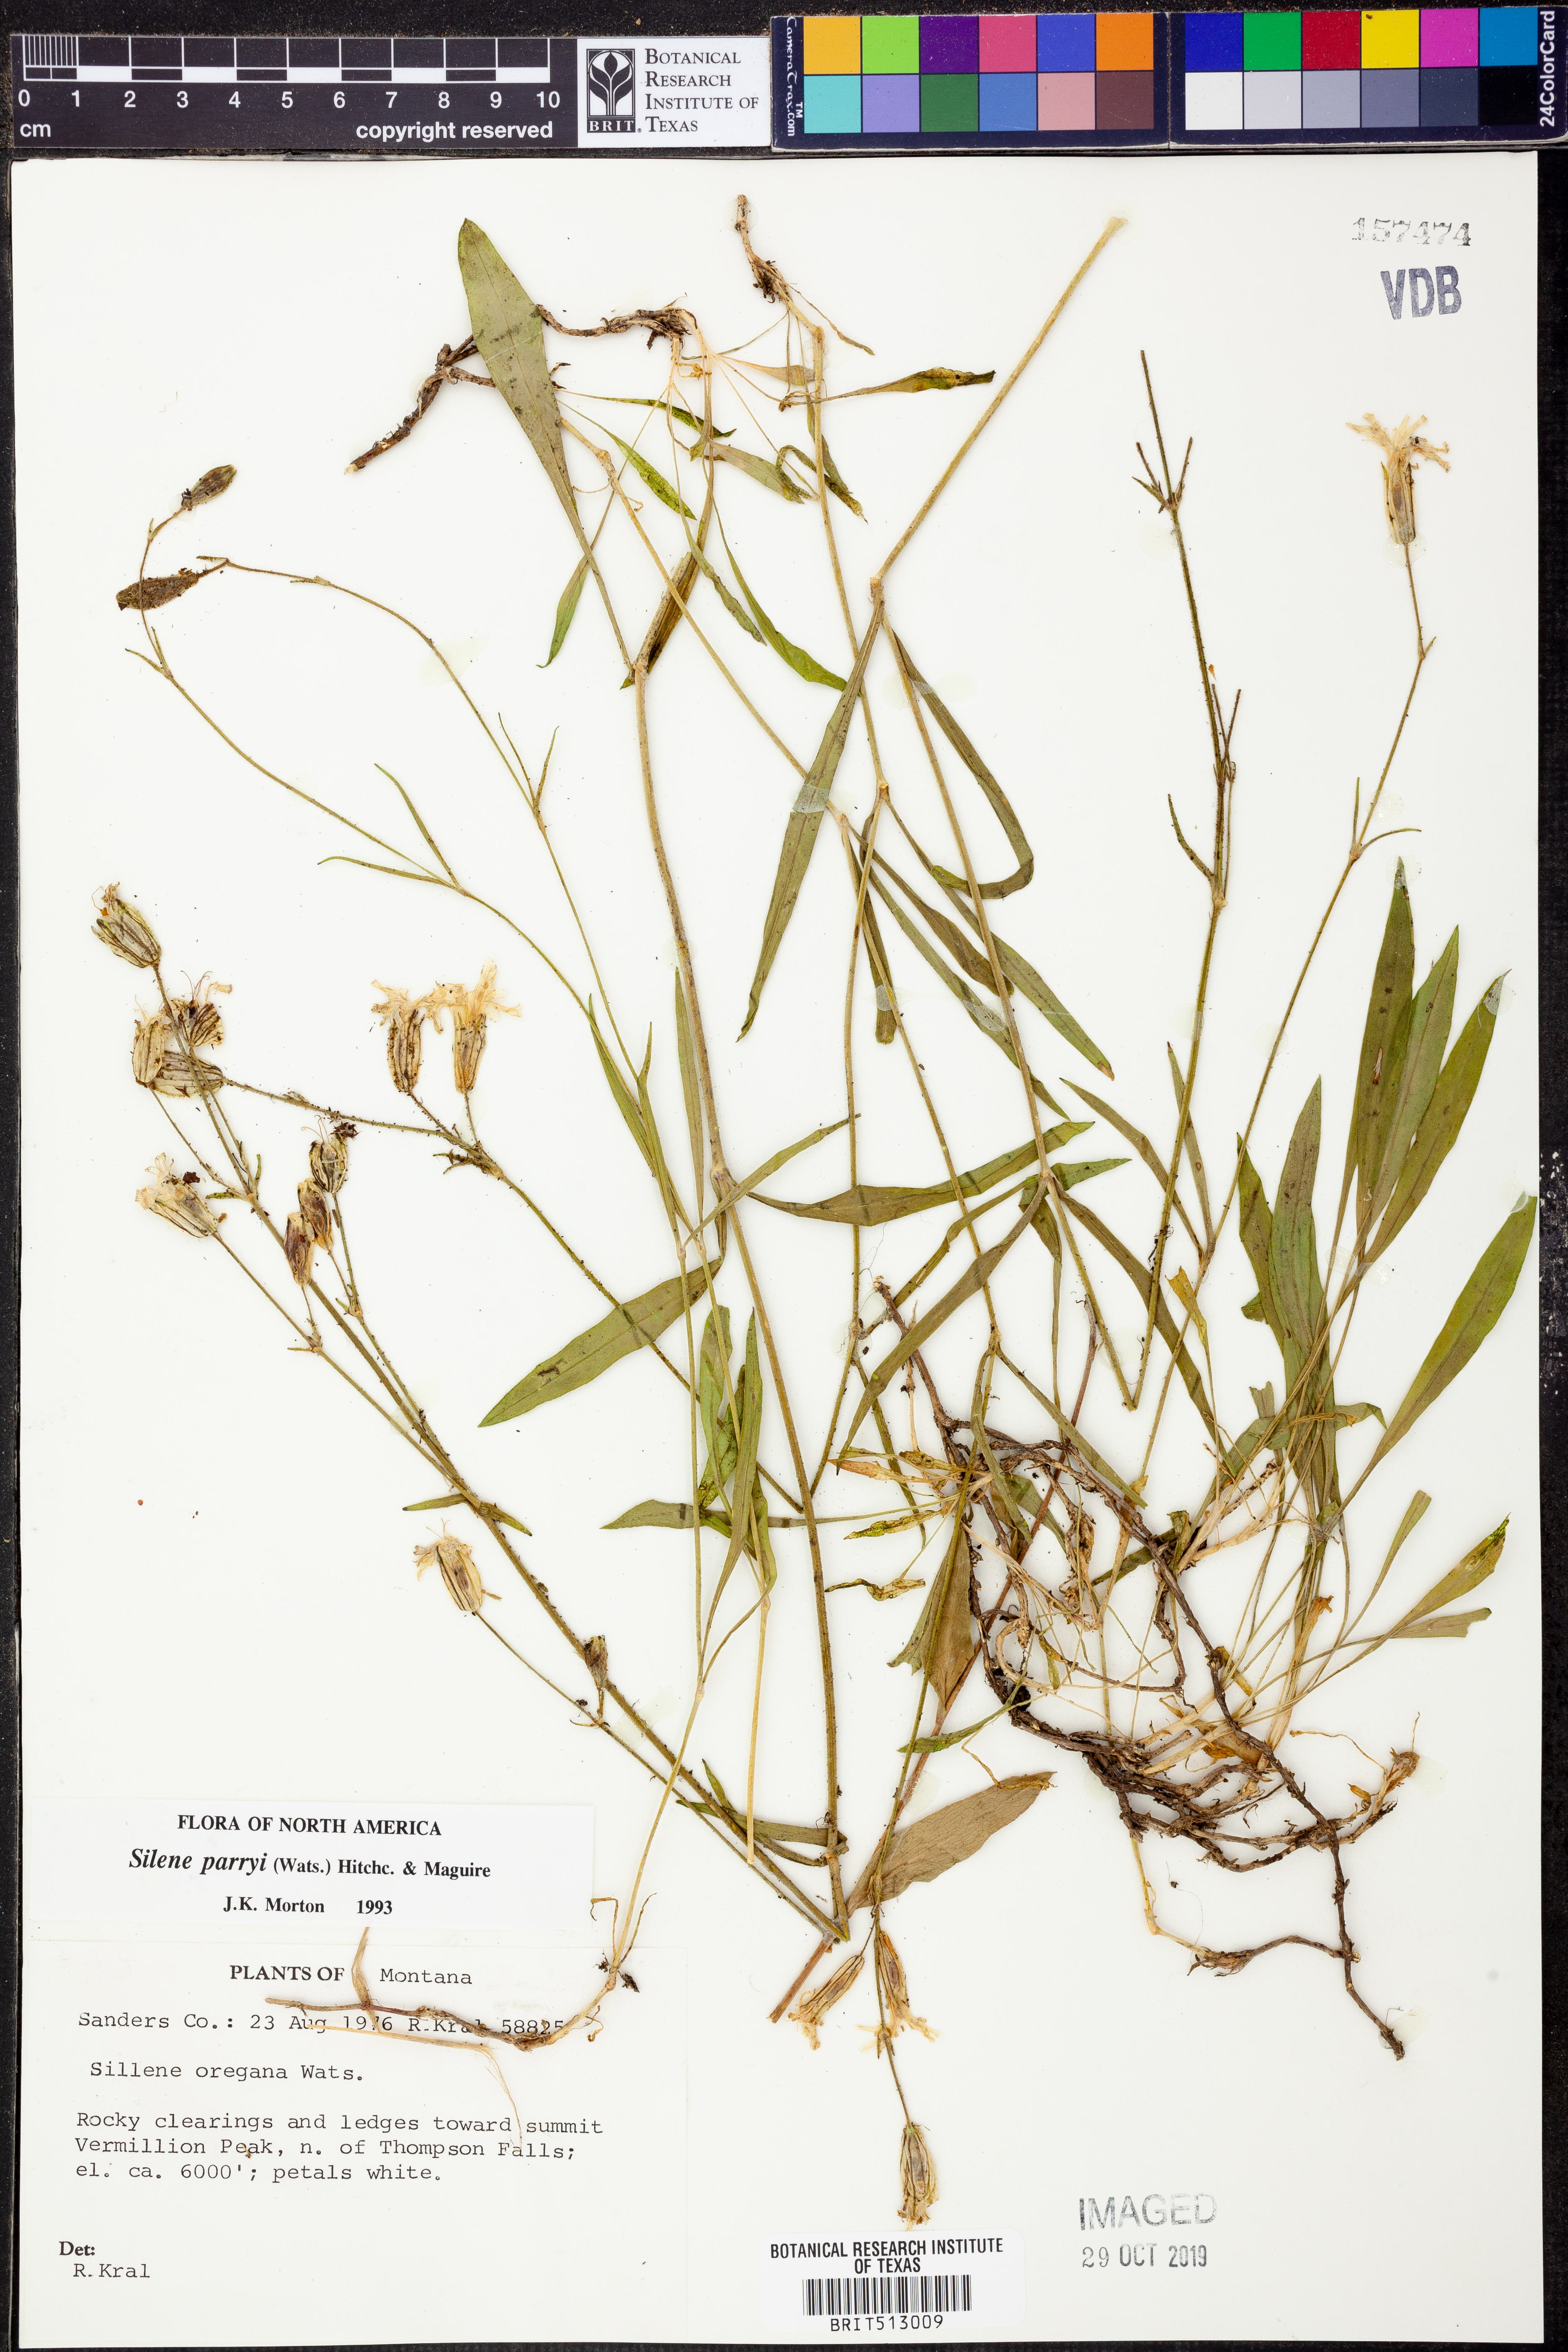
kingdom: Plantae
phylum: Tracheophyta
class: Magnoliopsida
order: Caryophyllales
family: Caryophyllaceae
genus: Silene
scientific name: Silene parryi
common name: Parry's campion
